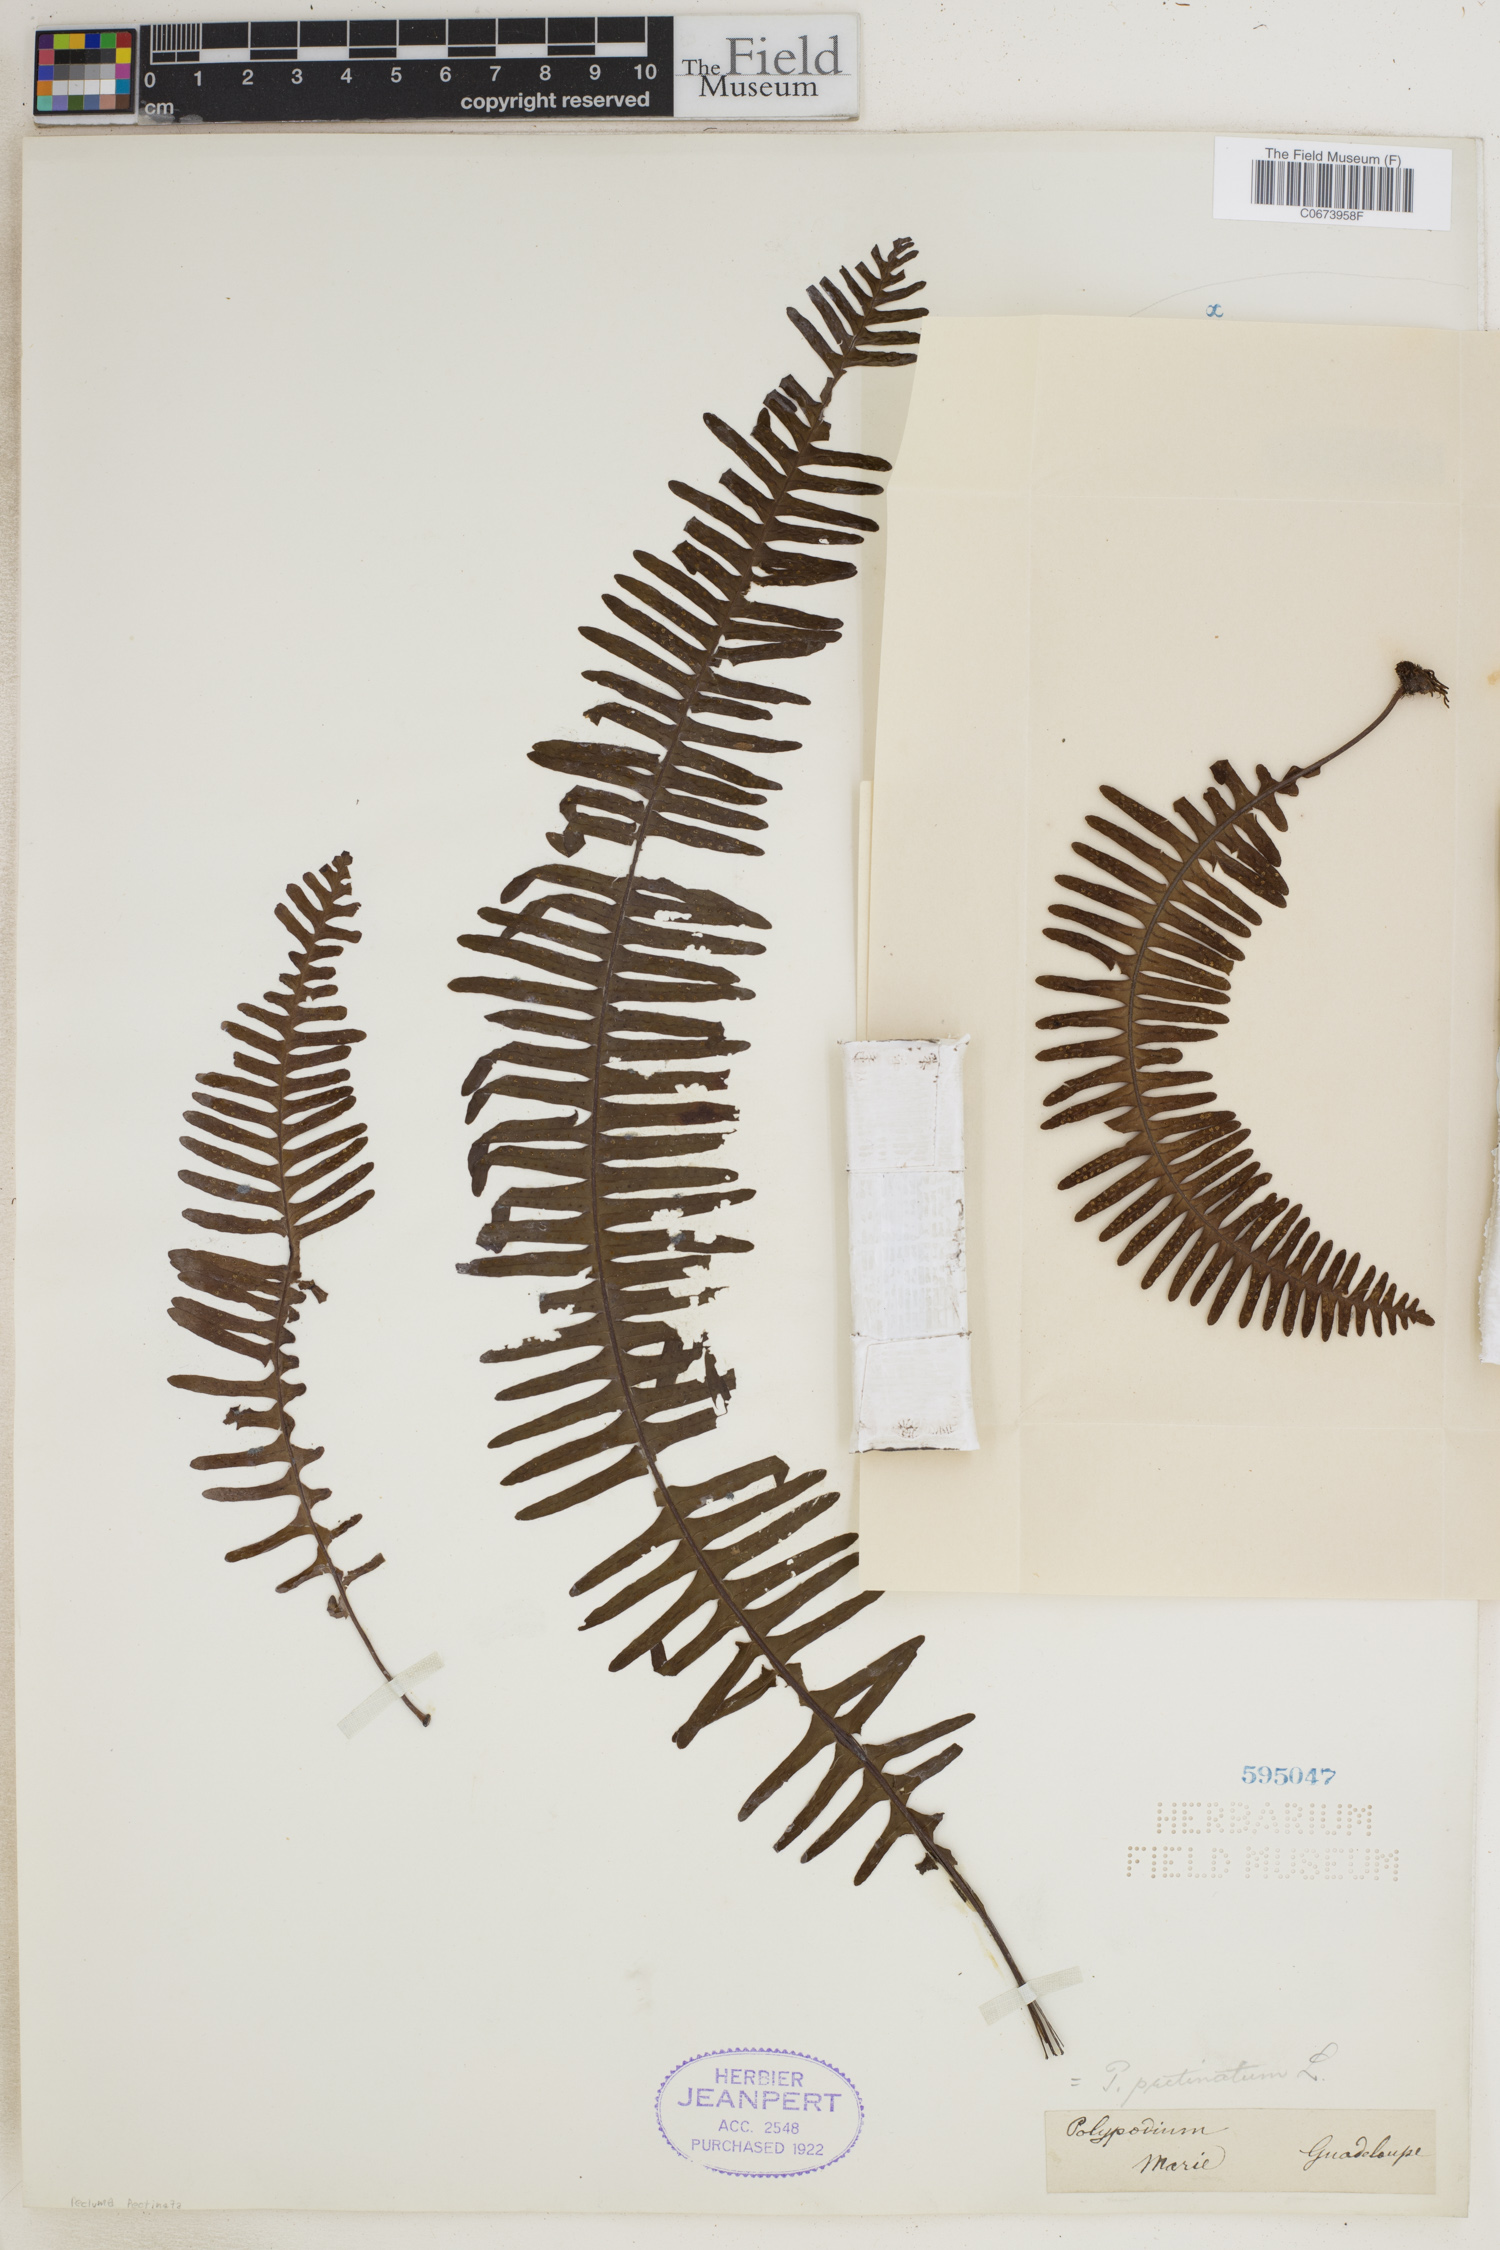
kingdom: Plantae
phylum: Tracheophyta
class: Polypodiopsida
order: Polypodiales
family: Polypodiaceae
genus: Pecluma
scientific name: Pecluma pectinata
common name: Msasa fern
